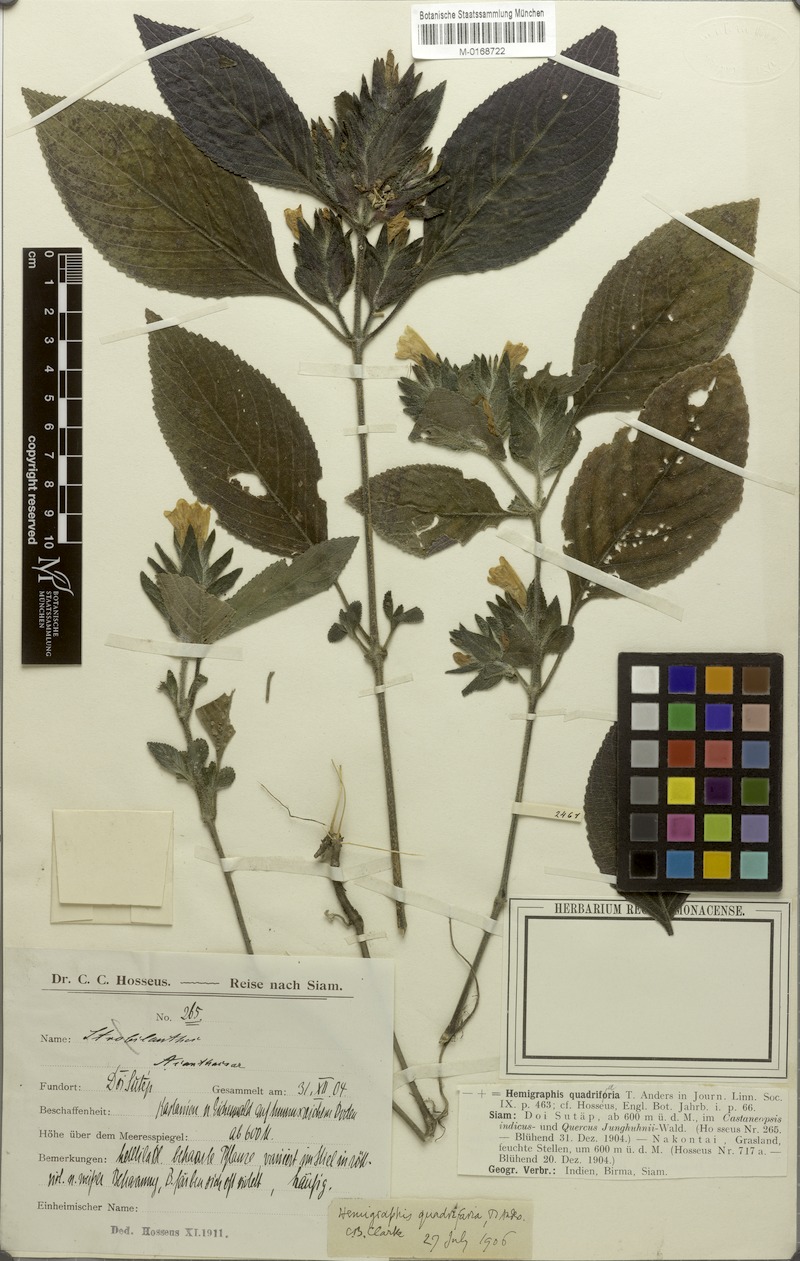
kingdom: Plantae
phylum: Tracheophyta
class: Magnoliopsida
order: Lamiales
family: Acanthaceae
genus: Strobilanthes
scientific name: Strobilanthes quadrifaria
